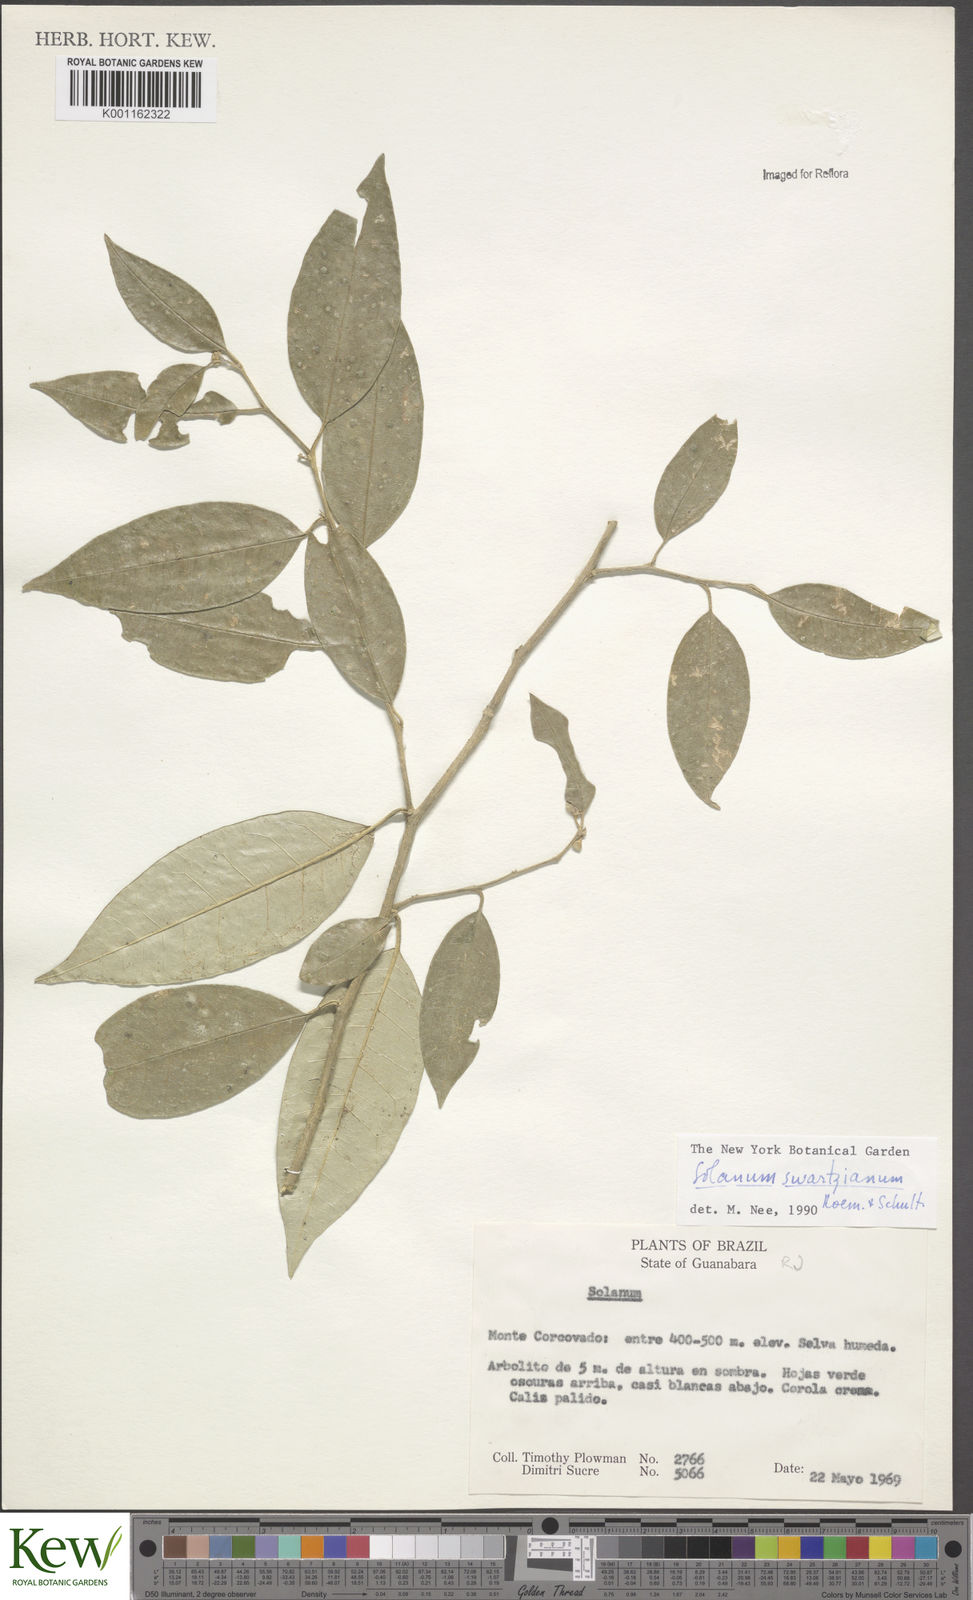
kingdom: Plantae
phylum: Tracheophyta
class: Magnoliopsida
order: Solanales
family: Solanaceae
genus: Solanum
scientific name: Solanum swartzianum
